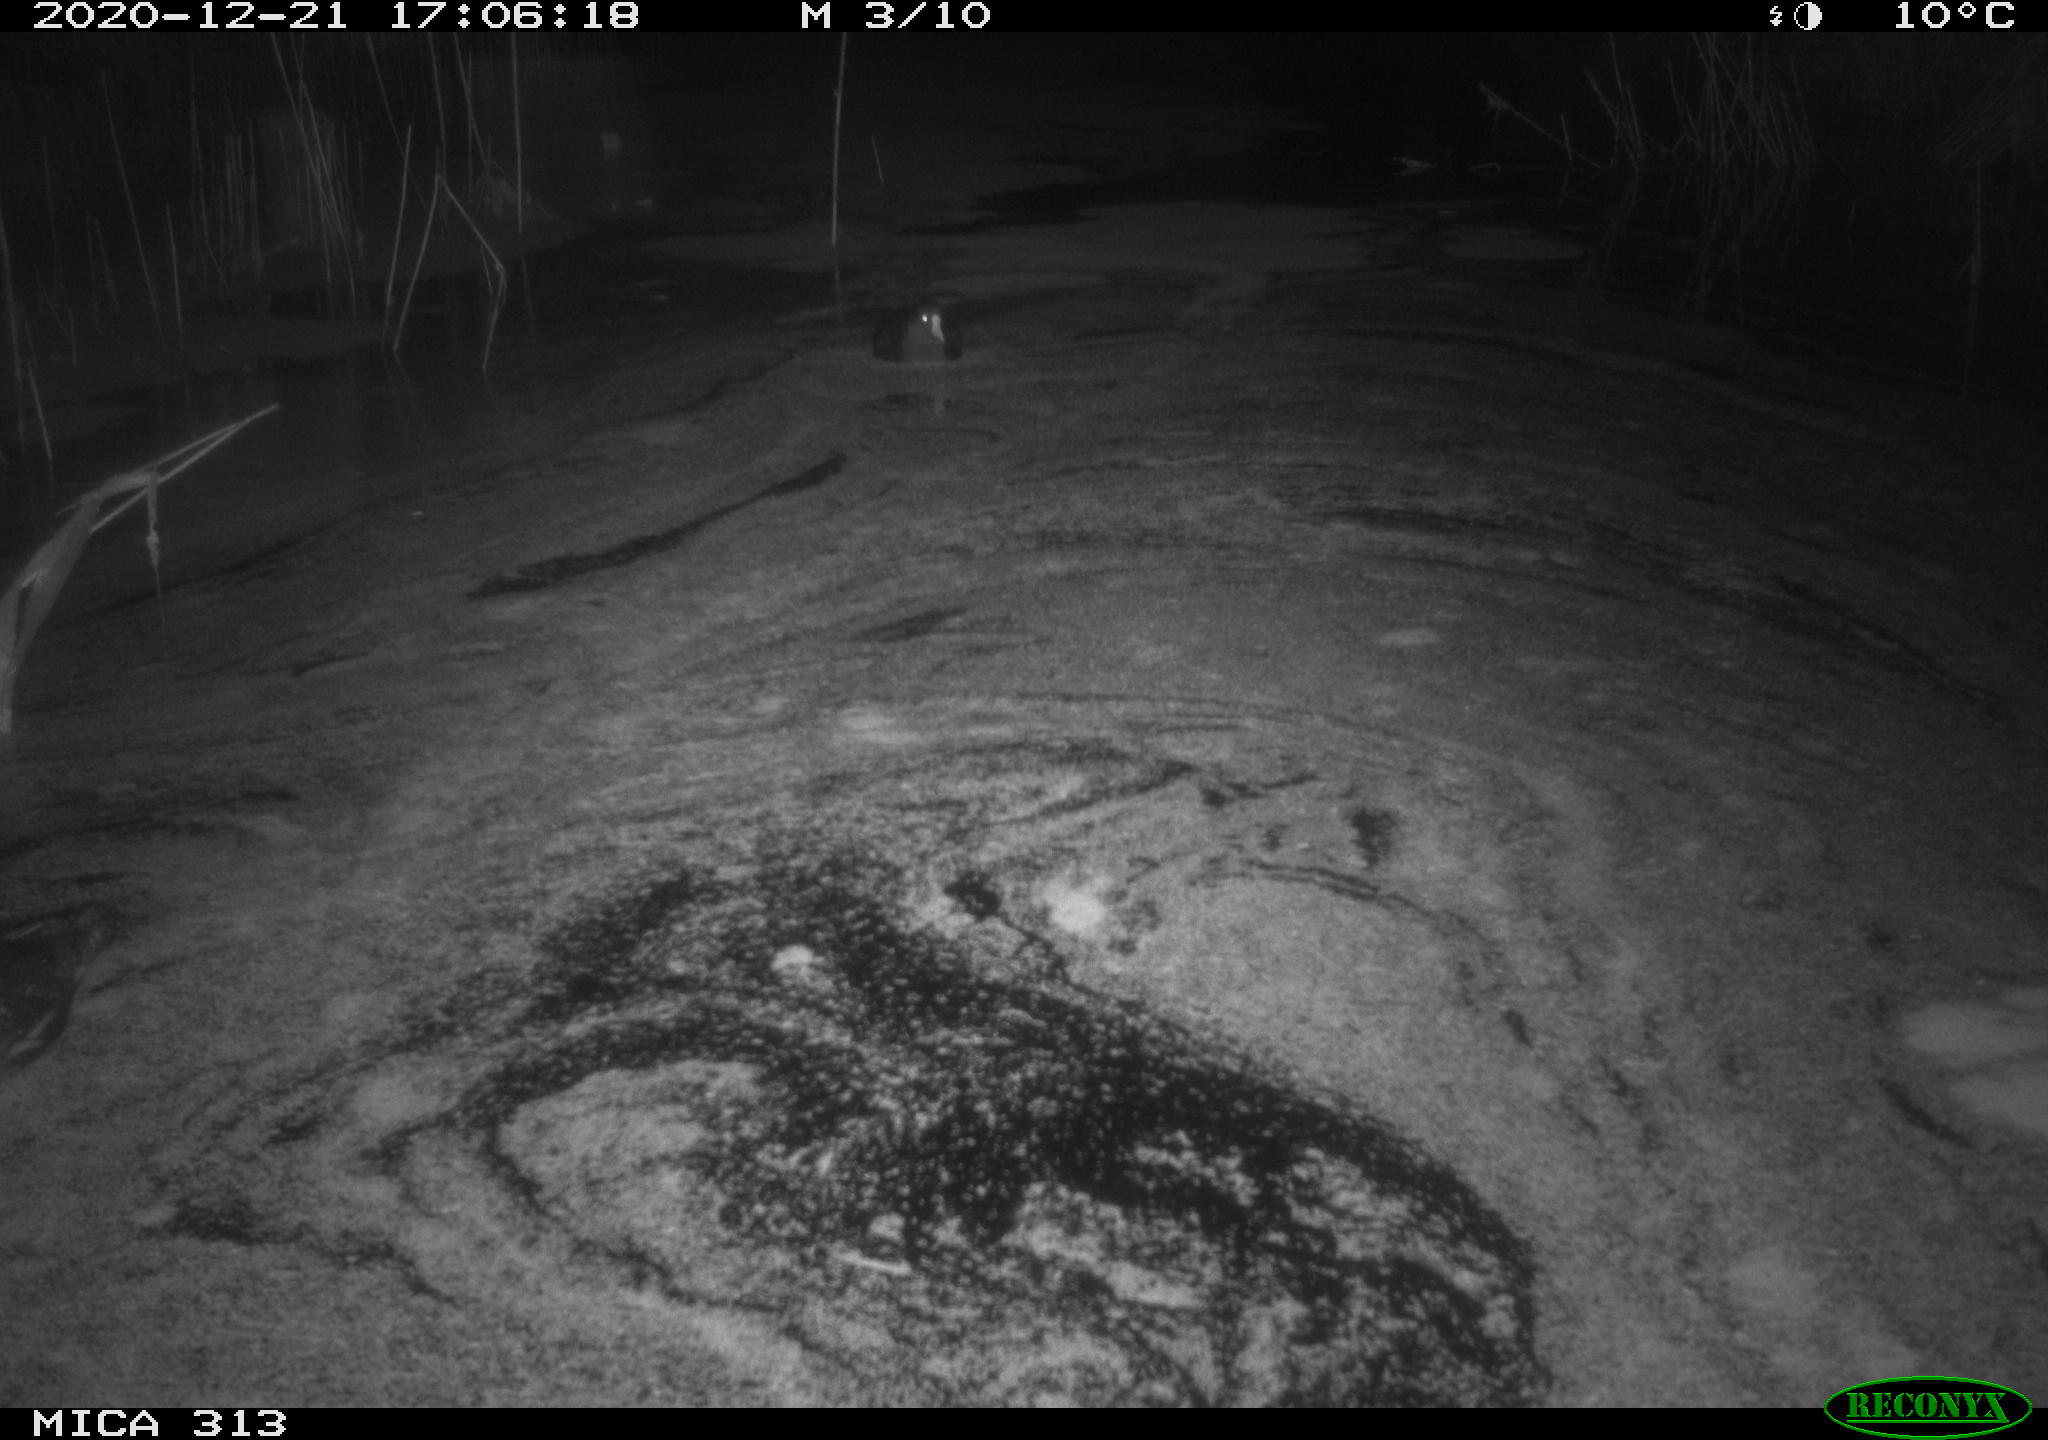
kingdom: Animalia
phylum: Chordata
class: Aves
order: Gruiformes
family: Rallidae
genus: Gallinula
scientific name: Gallinula chloropus
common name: Common moorhen
